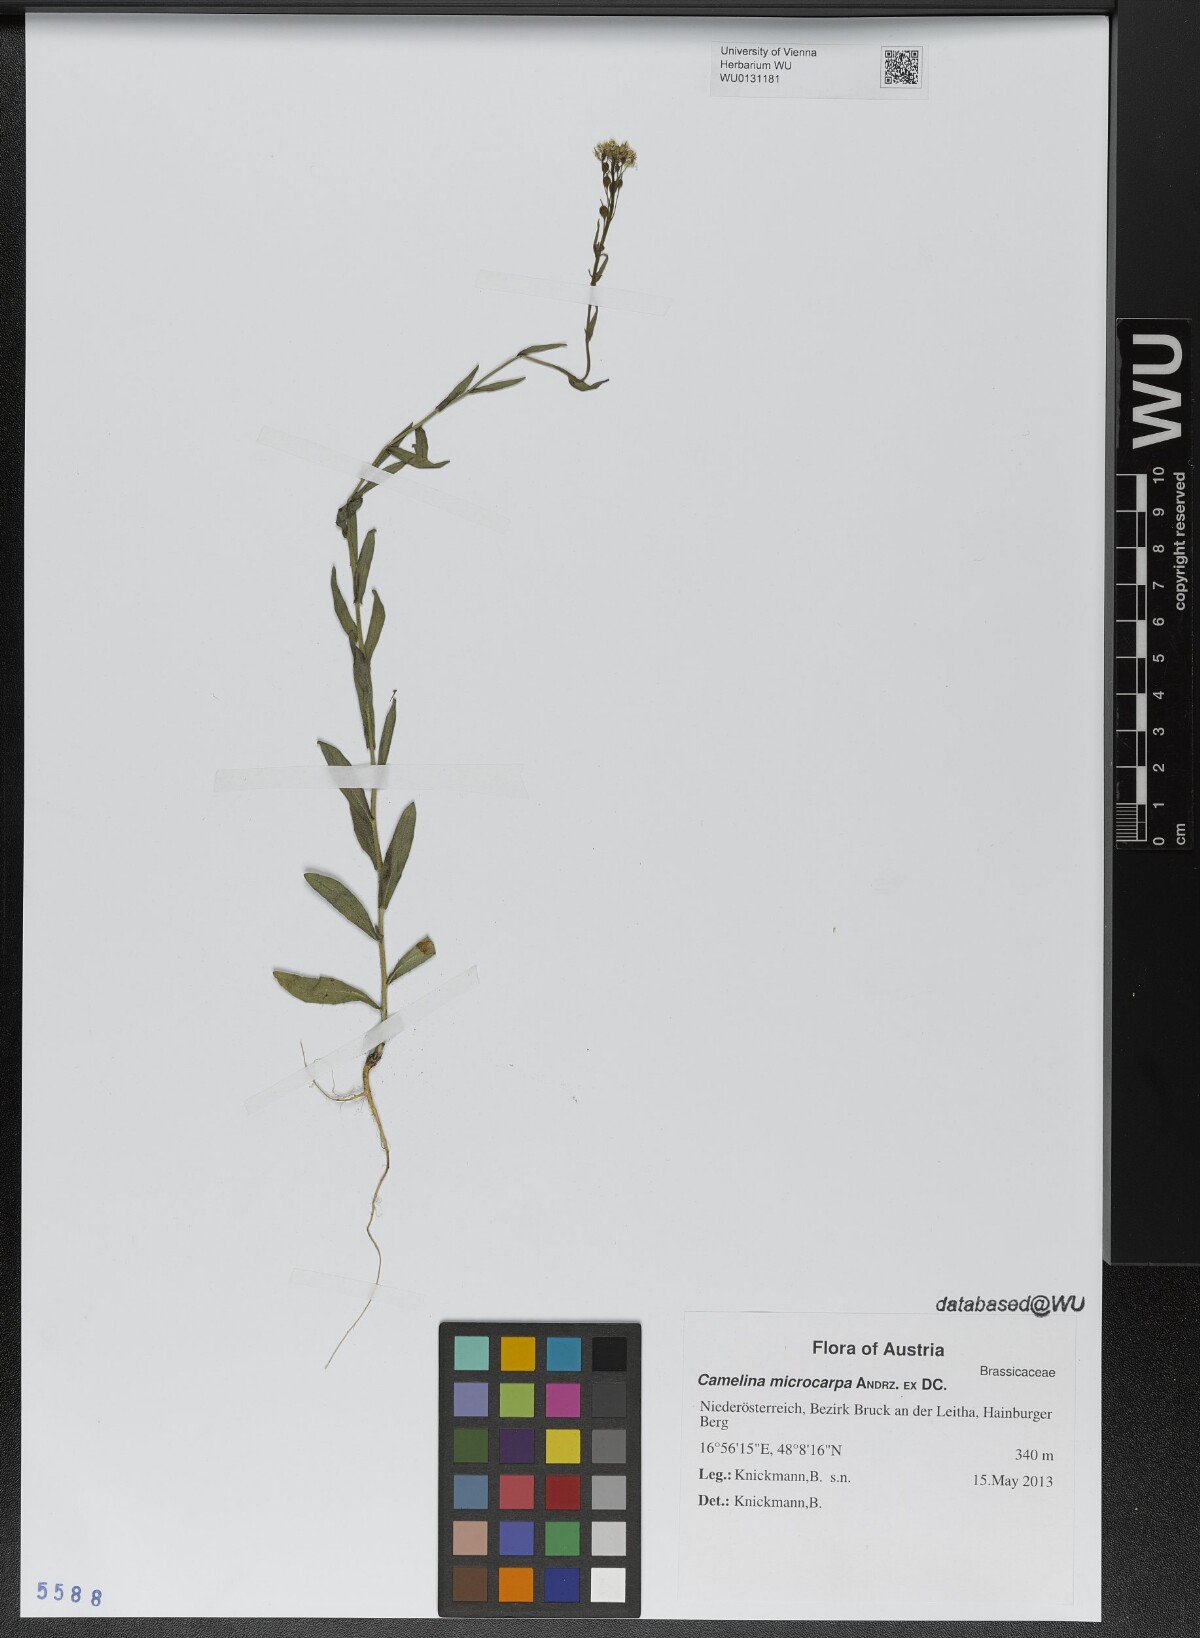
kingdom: Plantae
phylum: Tracheophyta
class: Magnoliopsida
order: Brassicales
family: Brassicaceae
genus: Camelina
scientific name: Camelina microcarpa
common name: Lesser gold-of-pleasure
